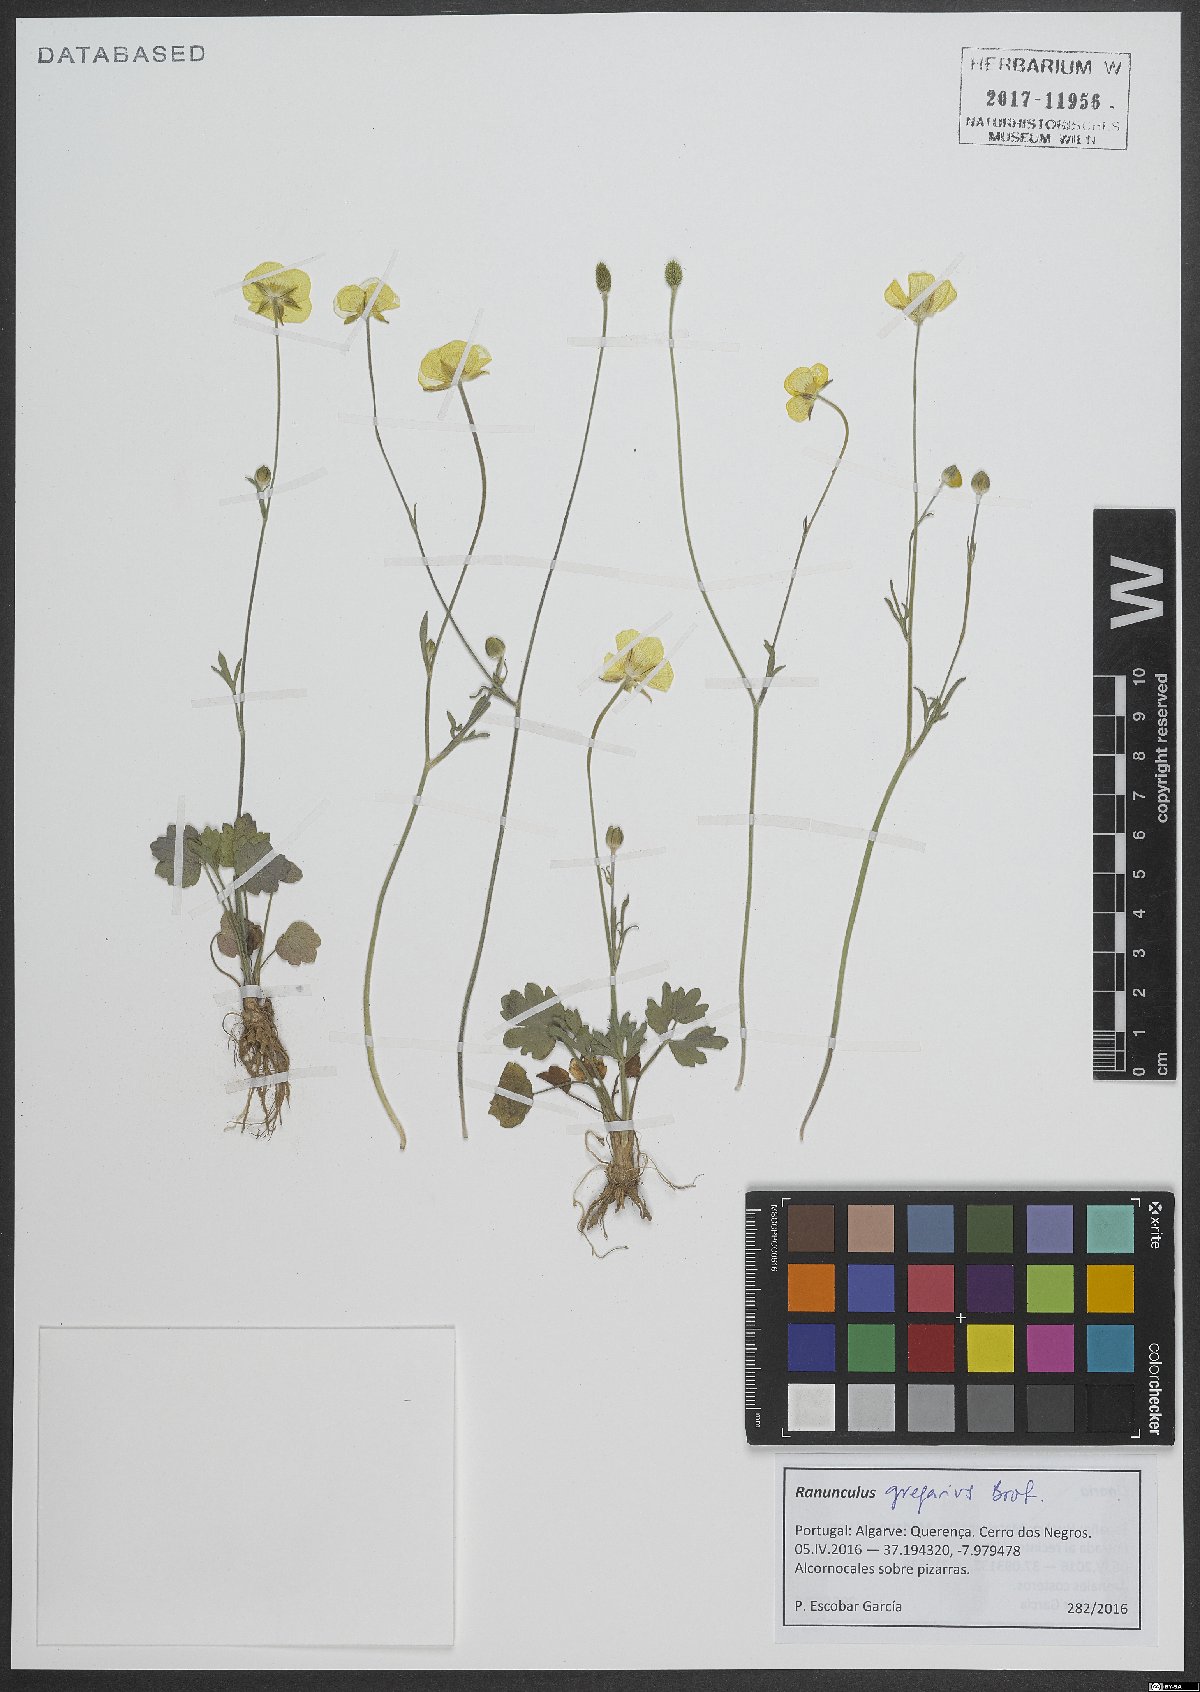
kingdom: Plantae
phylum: Tracheophyta
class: Magnoliopsida
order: Ranunculales
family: Ranunculaceae
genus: Ranunculus
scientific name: Ranunculus gregarius
